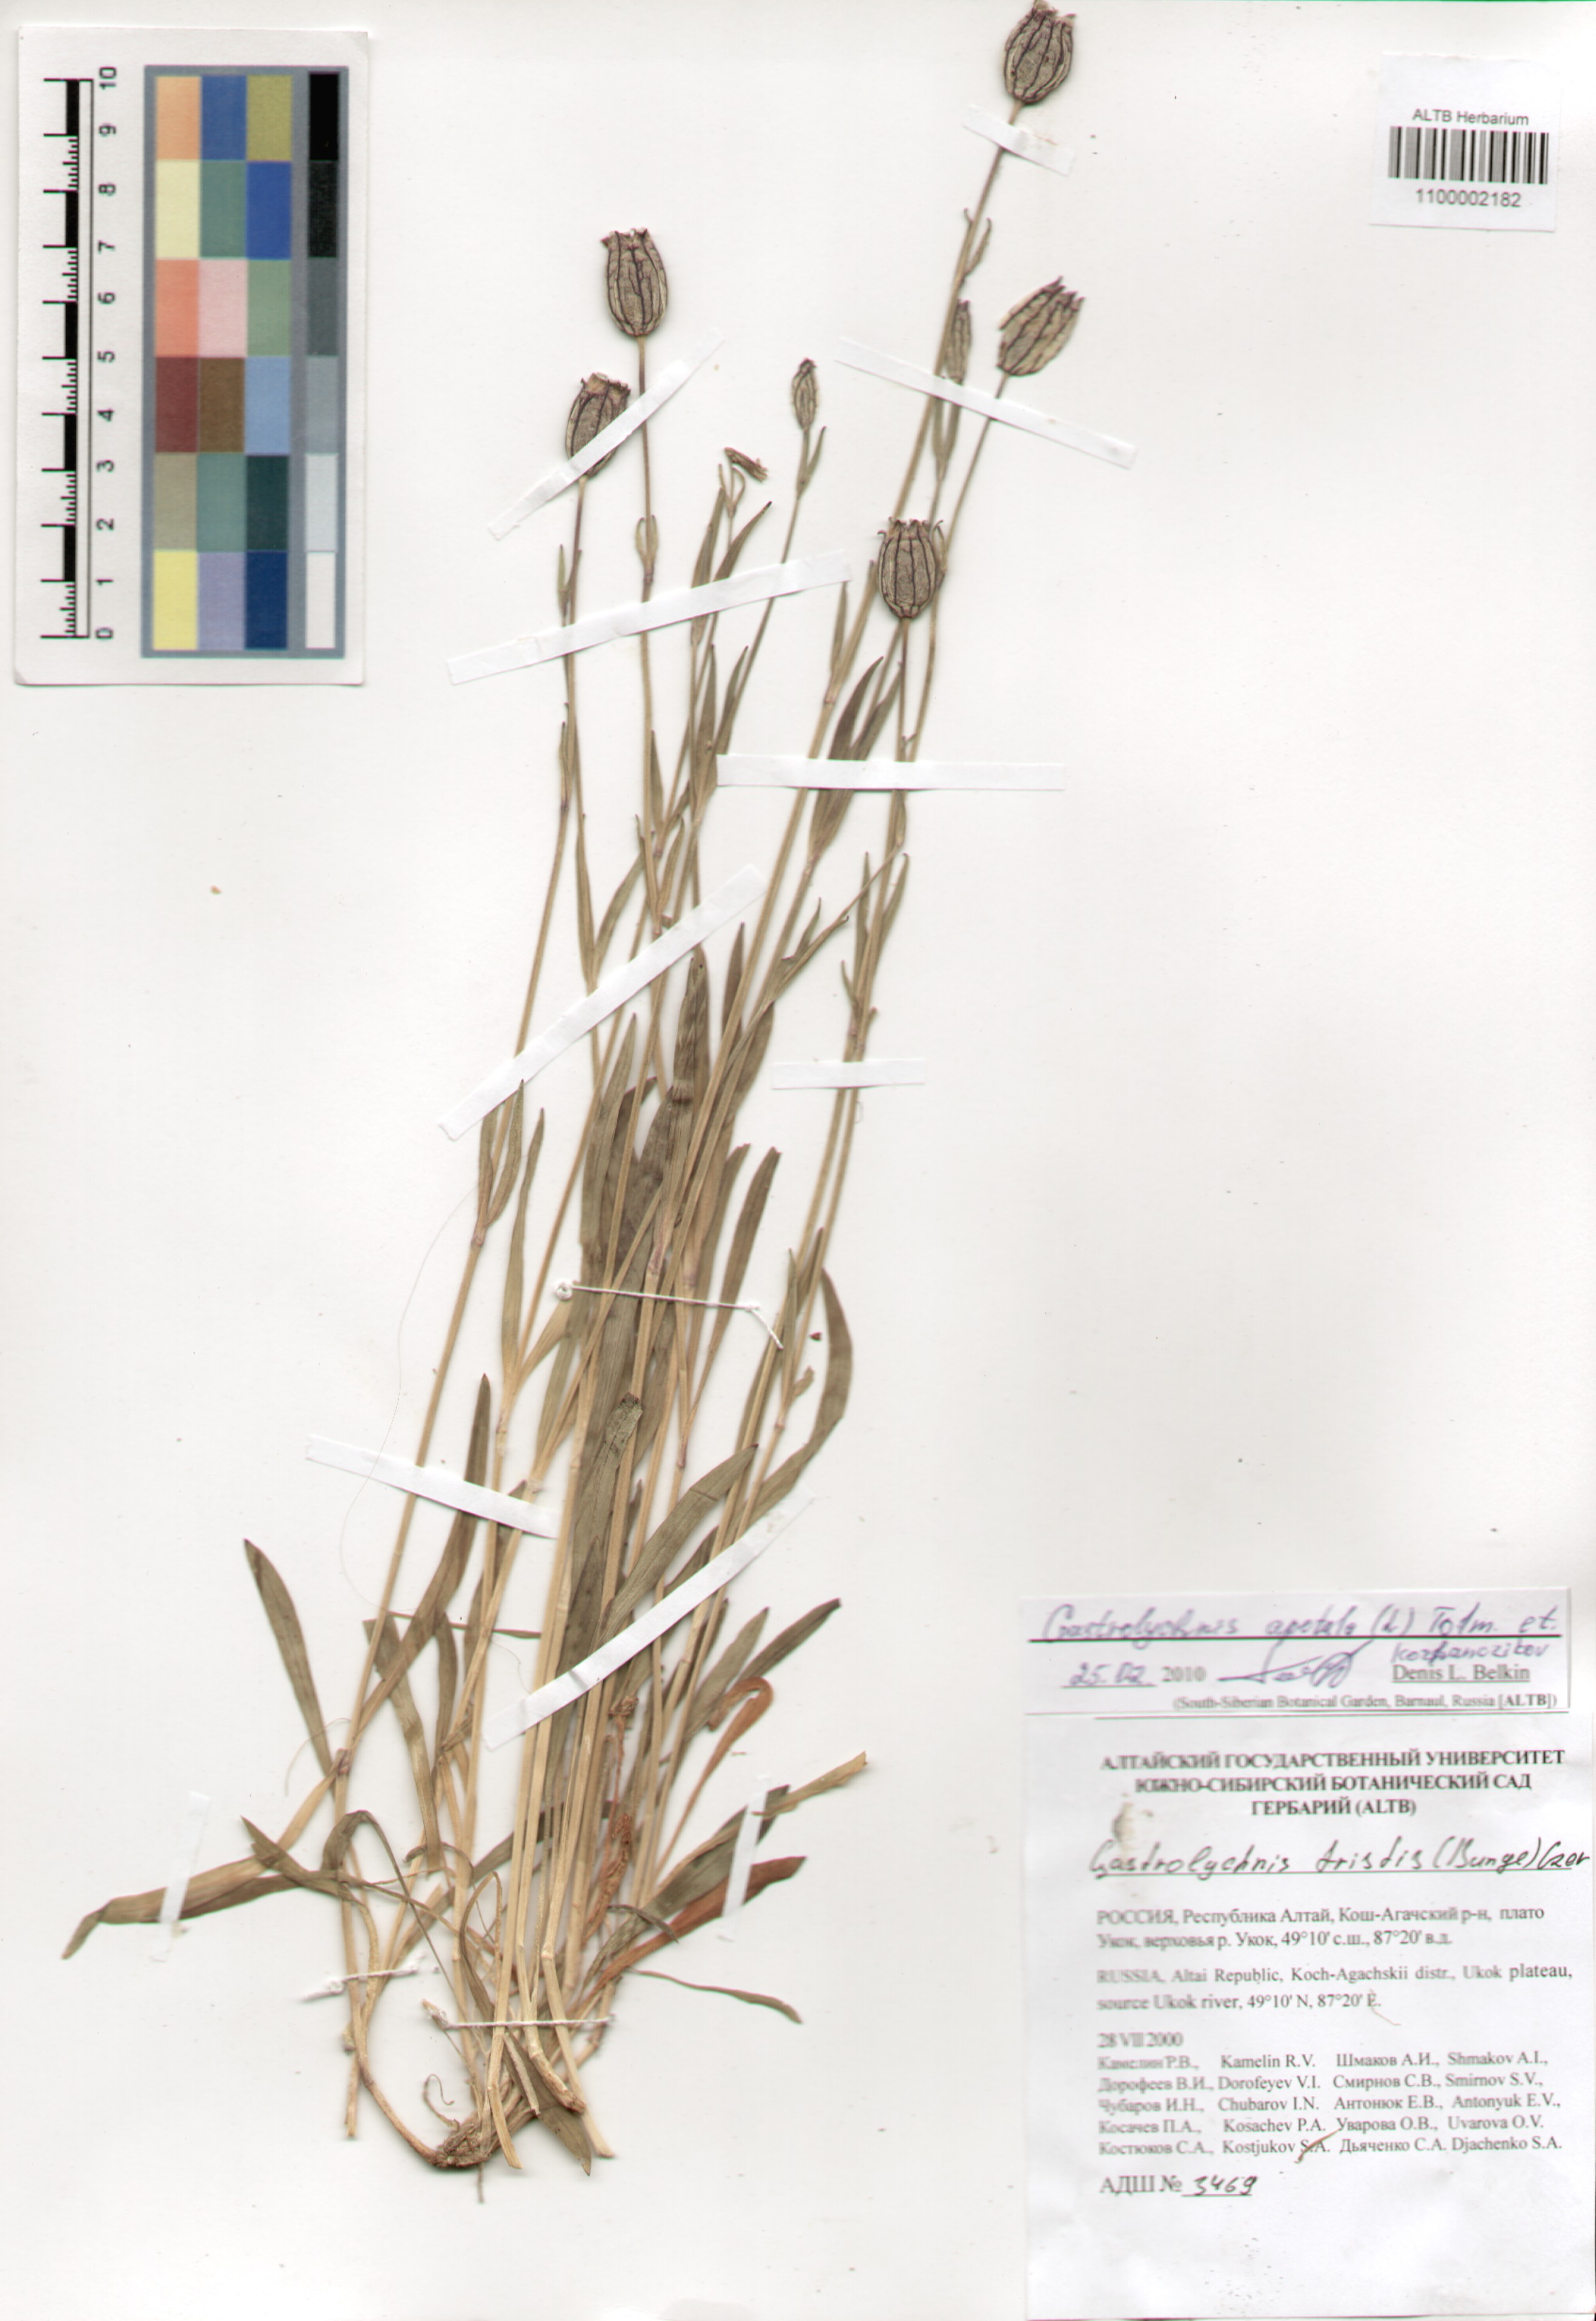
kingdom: Plantae
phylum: Tracheophyta
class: Magnoliopsida
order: Caryophyllales
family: Caryophyllaceae
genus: Silene
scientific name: Silene wahlbergella
